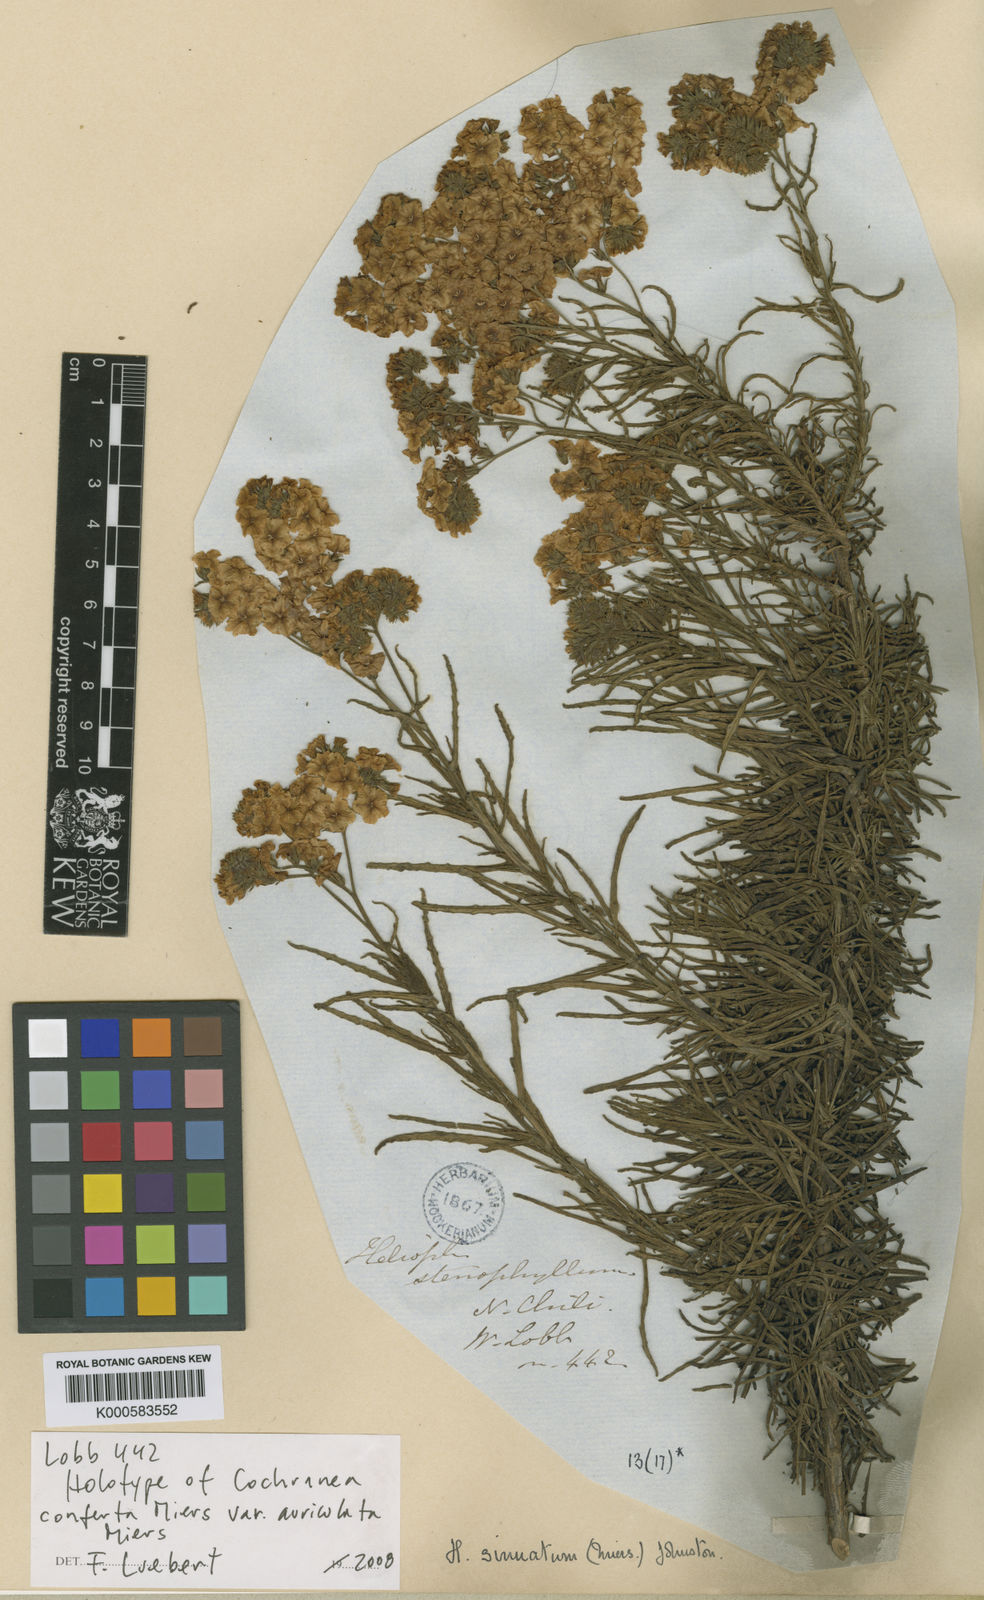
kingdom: Plantae
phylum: Tracheophyta
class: Magnoliopsida
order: Boraginales
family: Heliotropiaceae
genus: Heliotropium
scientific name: Heliotropium sinuatum
